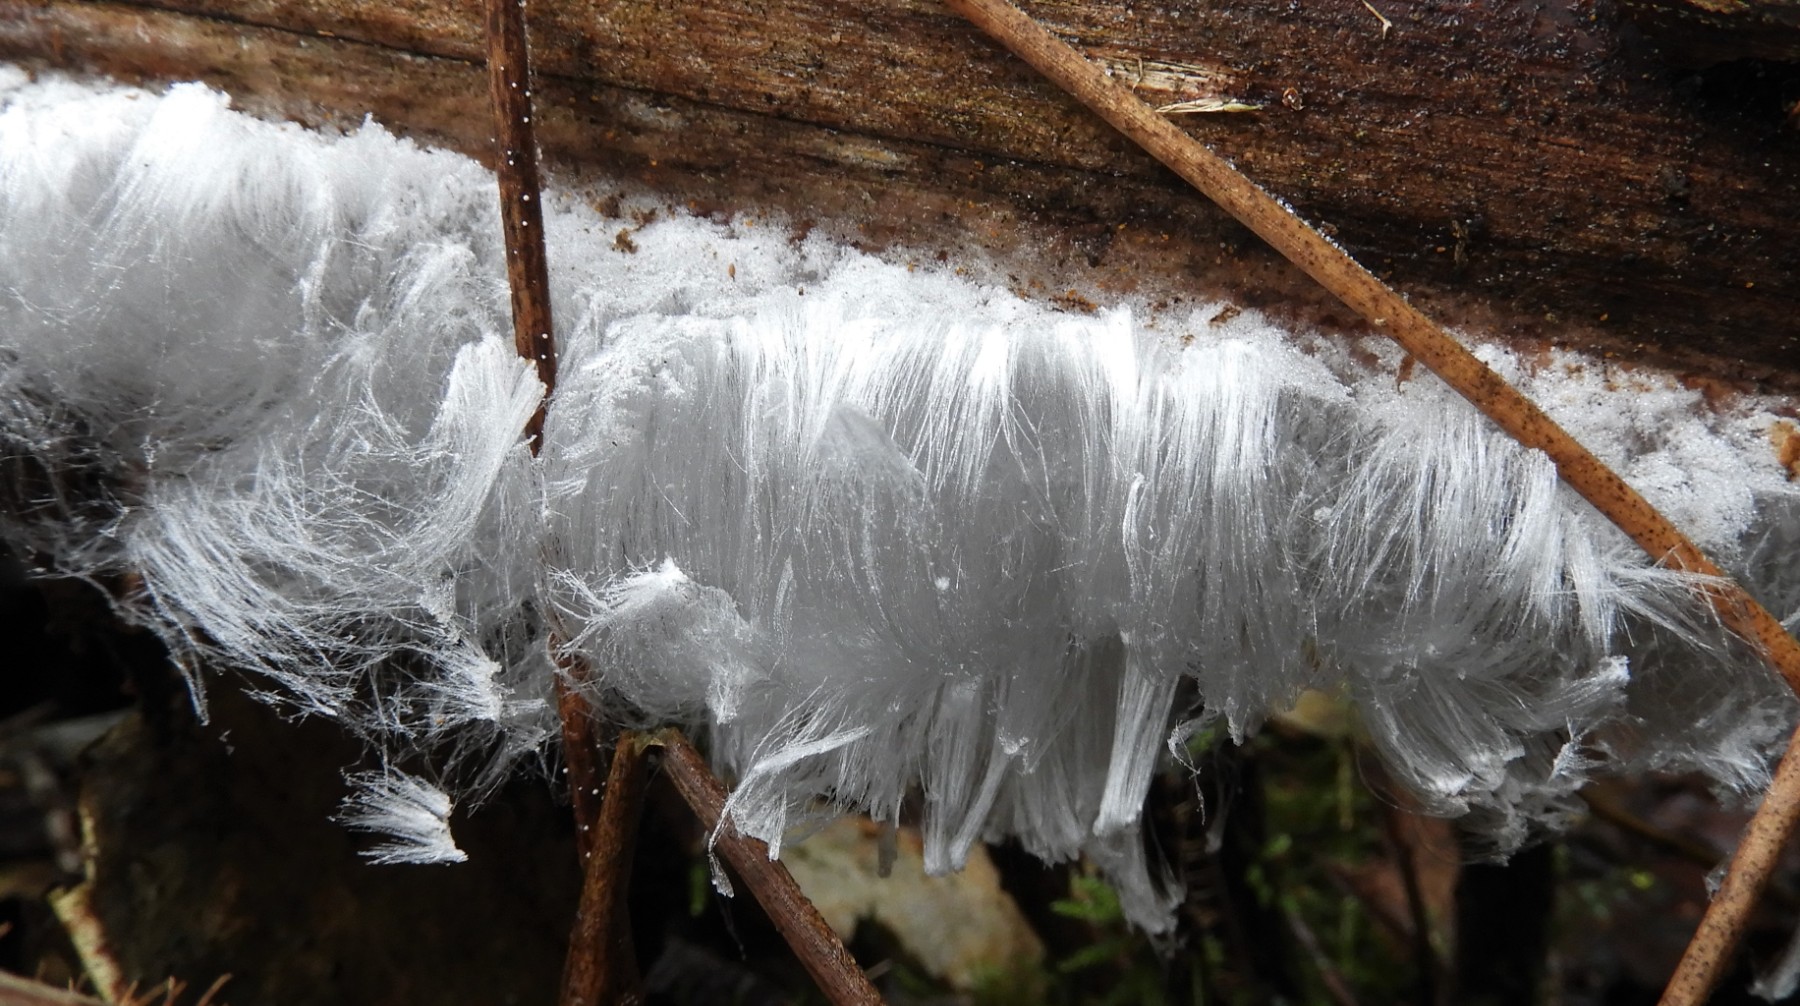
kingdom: Fungi
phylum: Basidiomycota
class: Tremellomycetes
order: Tremellales
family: Exidiaceae
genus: Exidiopsis
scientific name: Exidiopsis effusa
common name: smuk bævrehinde
